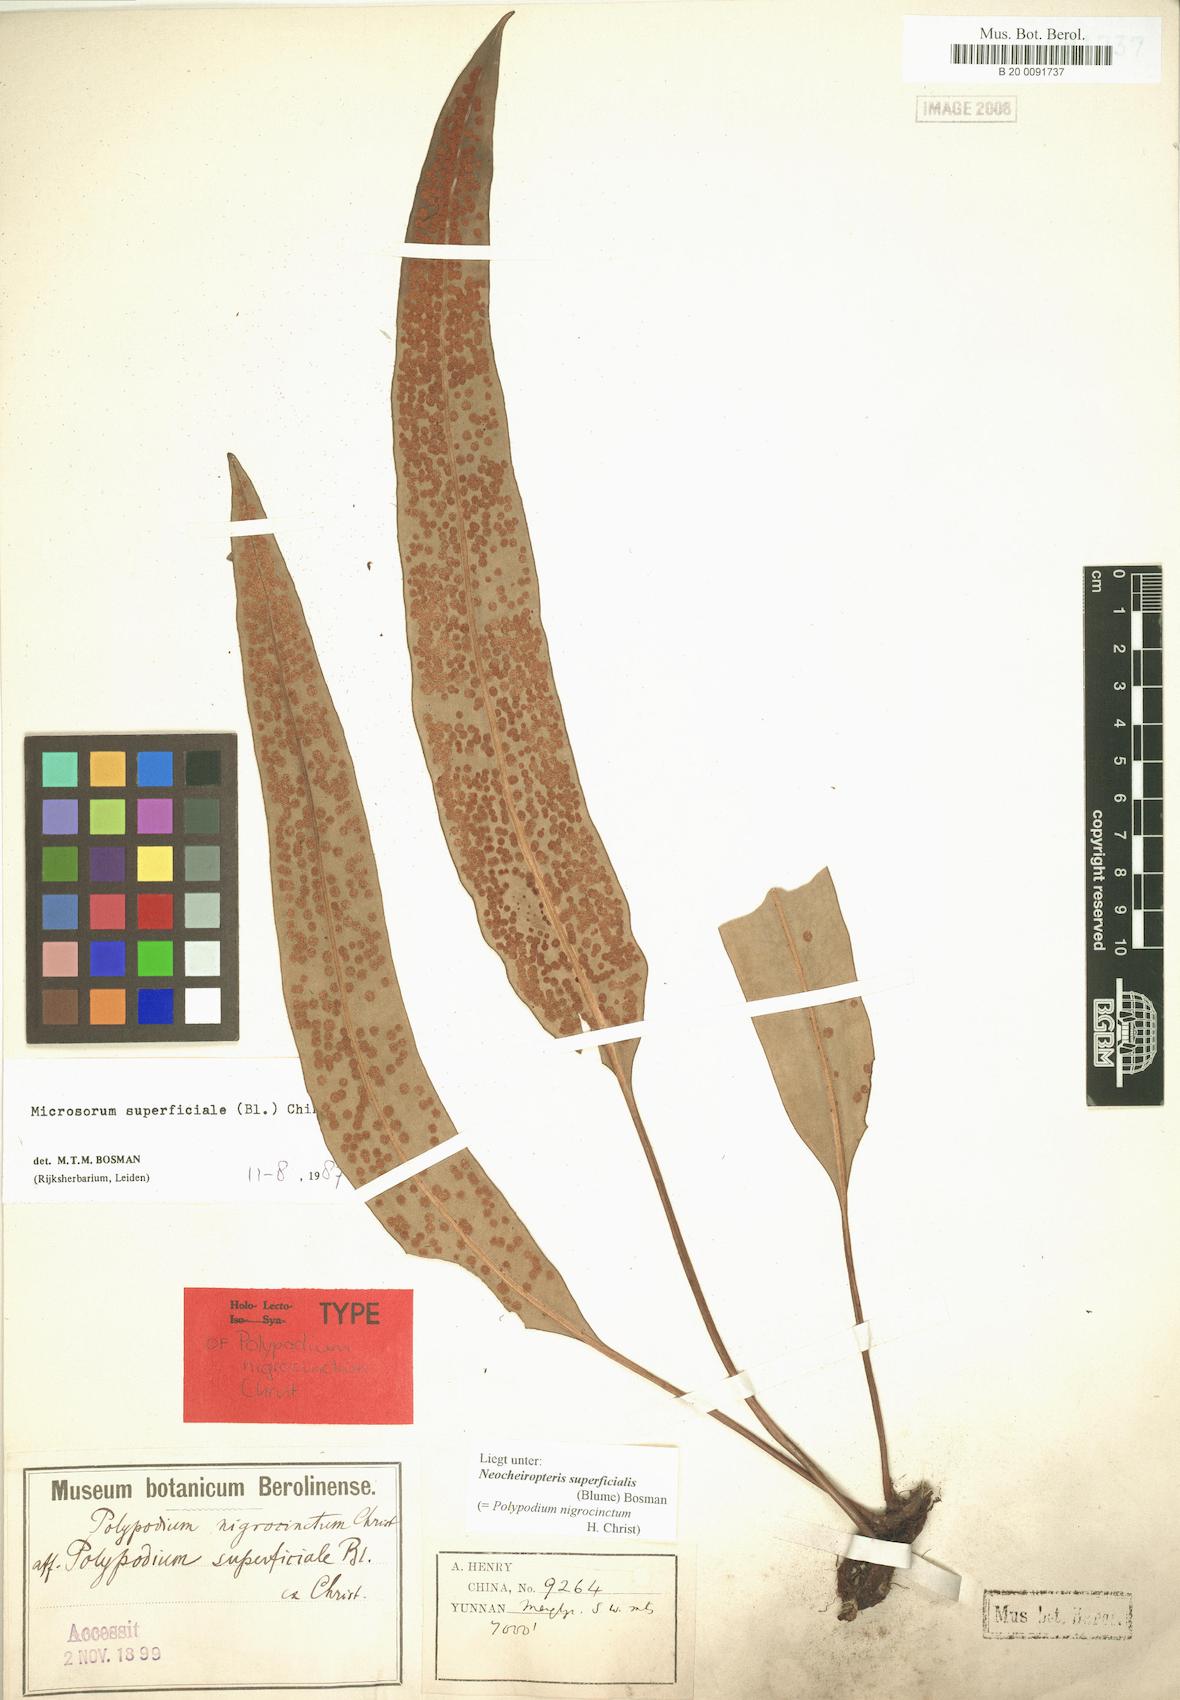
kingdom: Plantae
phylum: Tracheophyta
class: Polypodiopsida
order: Polypodiales
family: Polypodiaceae
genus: Lepisorus
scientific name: Lepisorus superficialis
